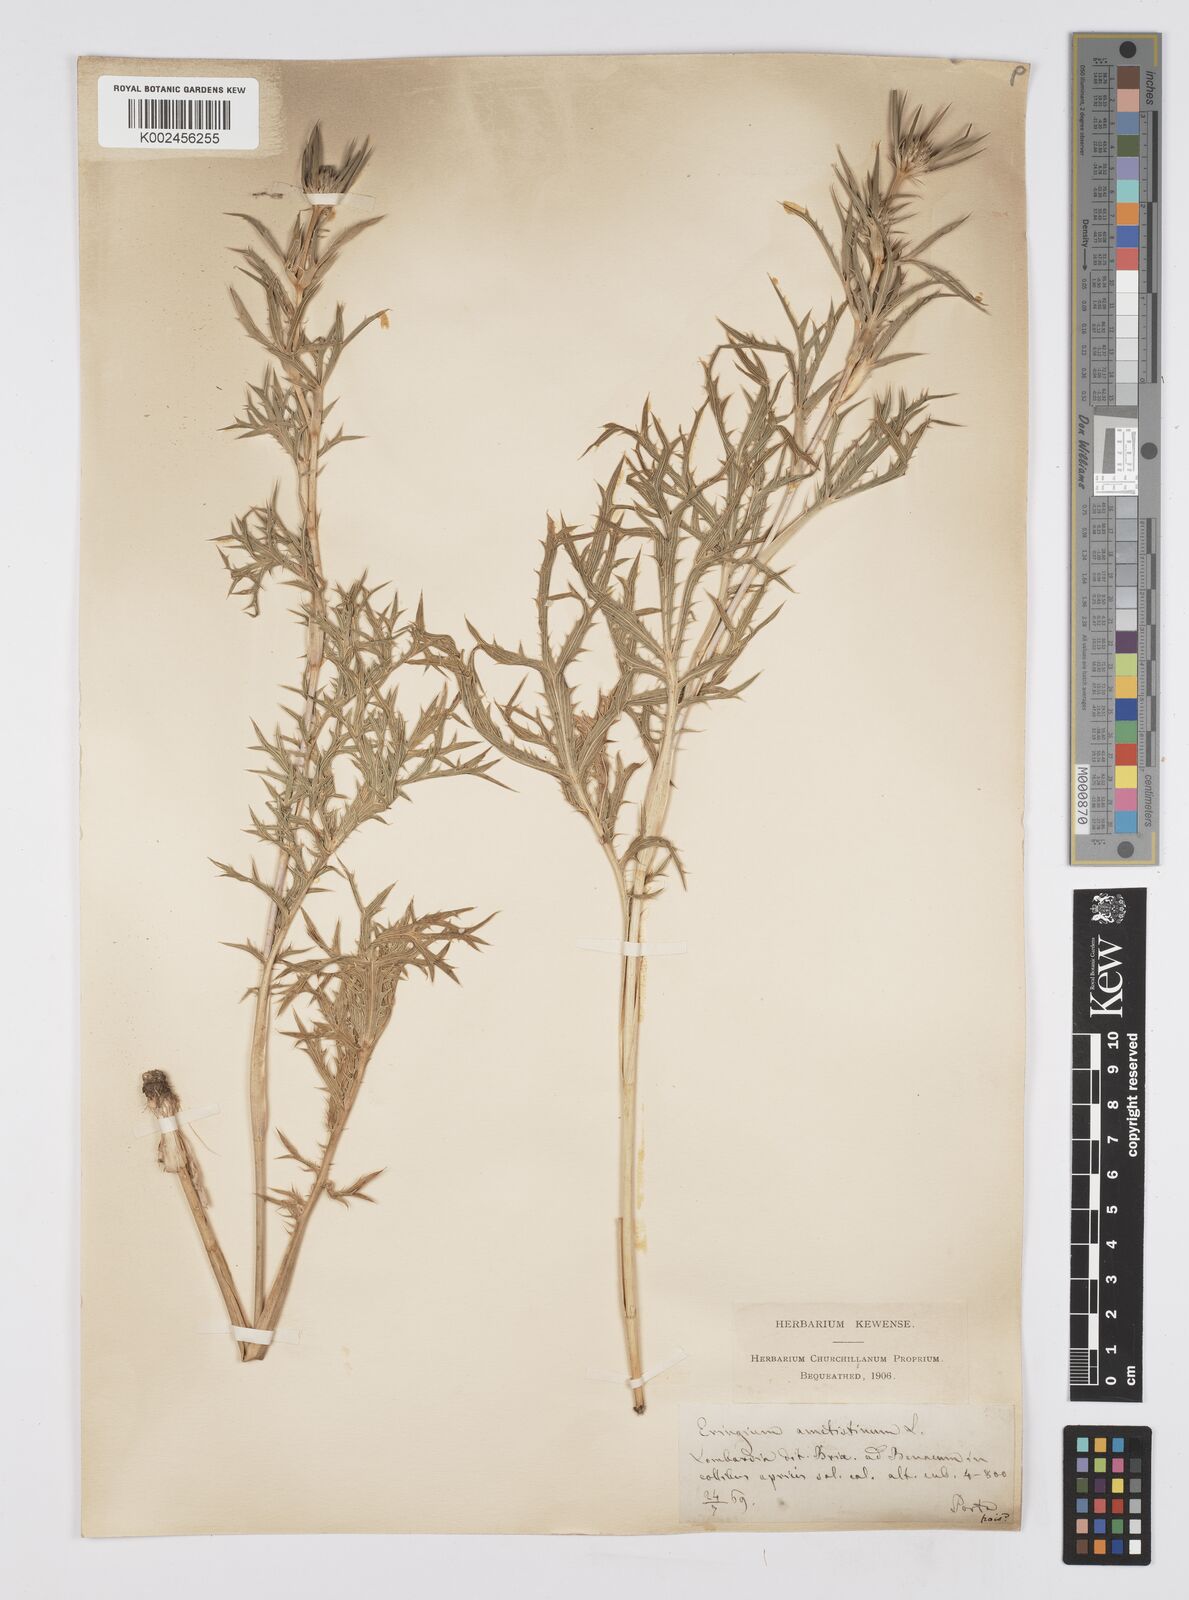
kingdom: Plantae
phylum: Tracheophyta
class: Magnoliopsida
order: Apiales
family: Apiaceae
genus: Eryngium
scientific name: Eryngium amethystinum
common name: Amethyst eryngo
